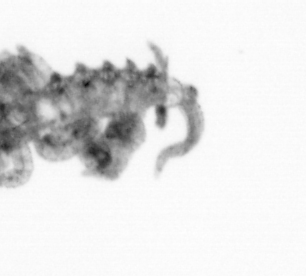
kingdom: Animalia
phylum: Annelida
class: Polychaeta
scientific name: Polychaeta
